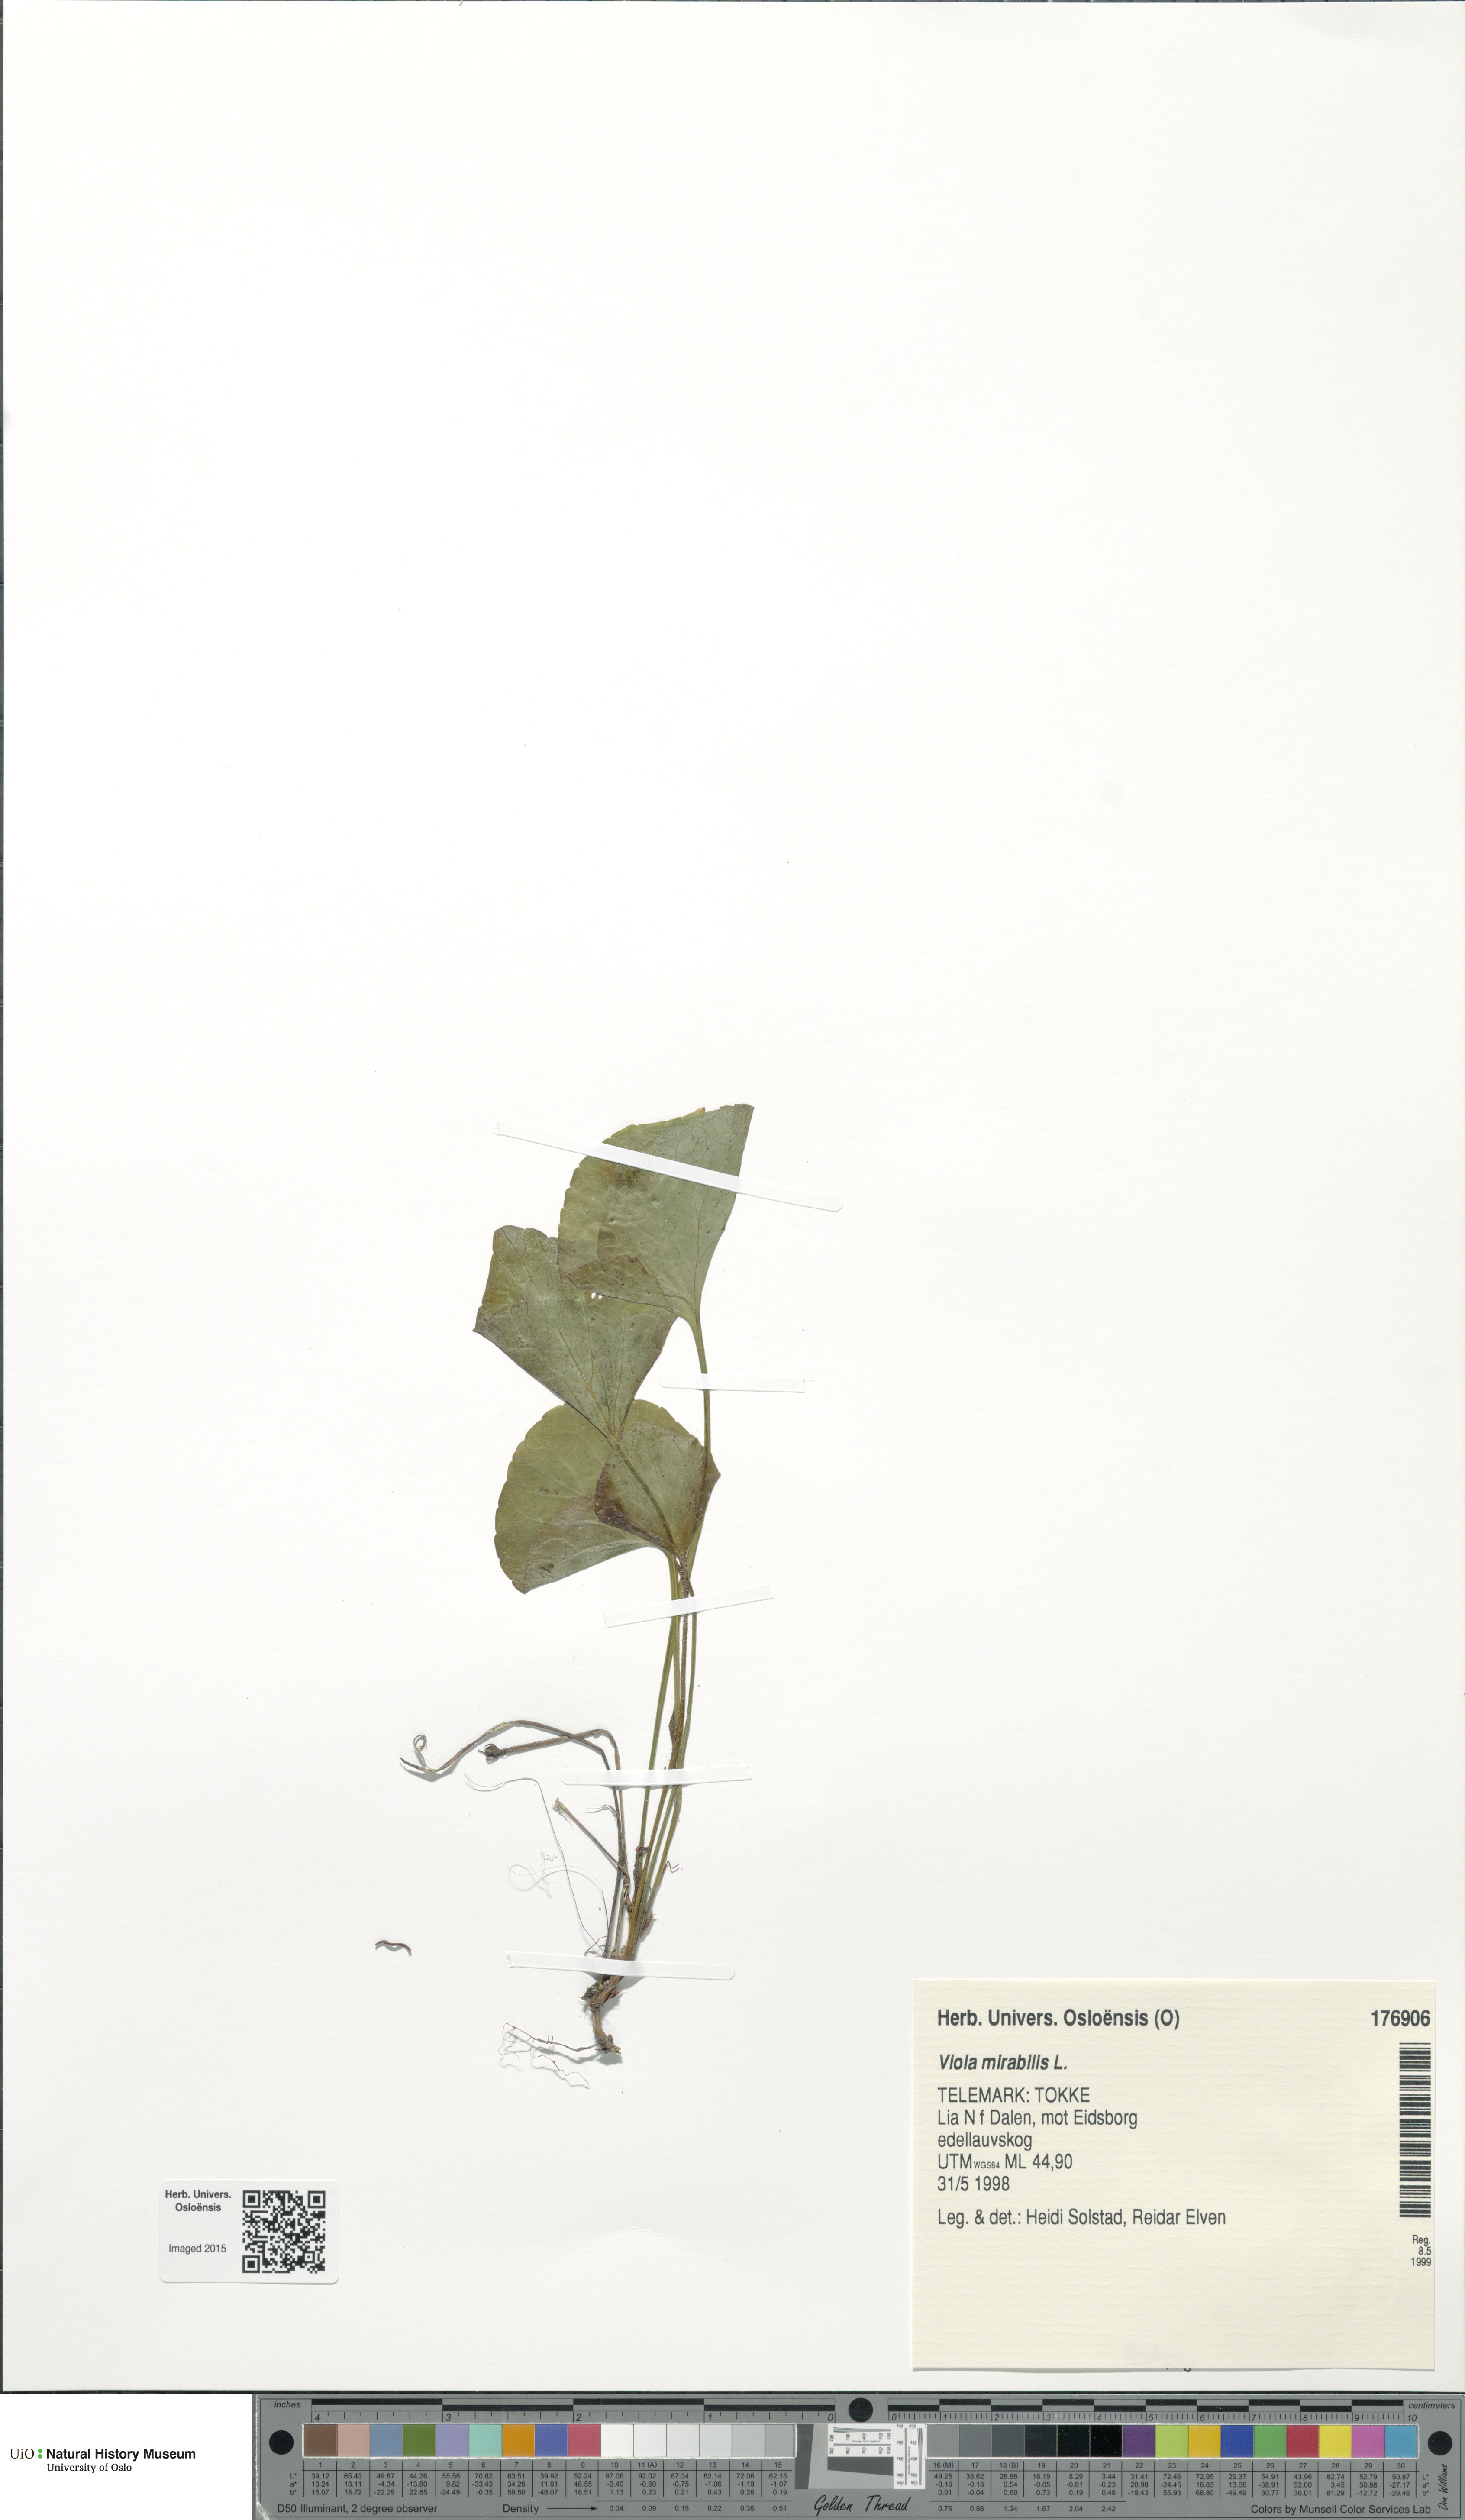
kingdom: Plantae
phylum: Tracheophyta
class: Magnoliopsida
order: Malpighiales
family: Violaceae
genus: Viola
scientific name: Viola mirabilis
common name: Wonder violet
